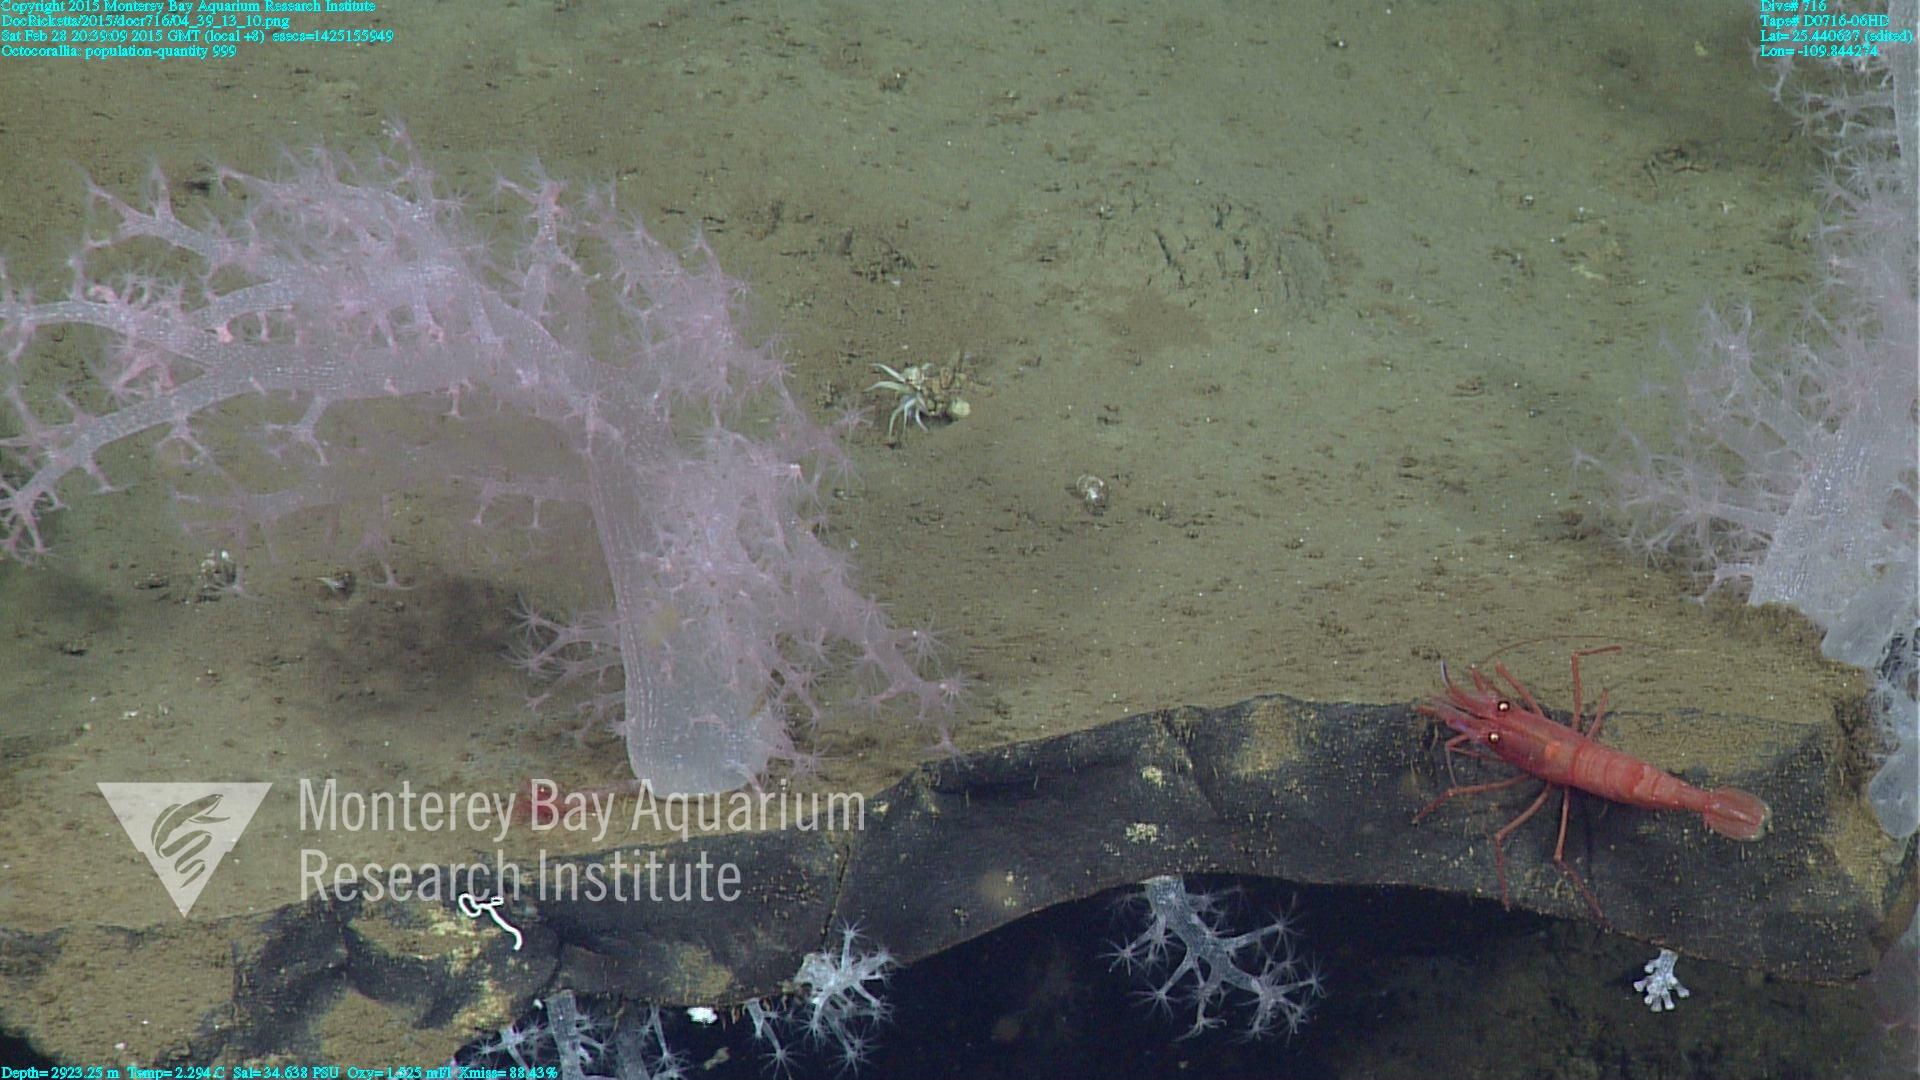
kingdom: Animalia
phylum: Cnidaria
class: Anthozoa
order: Malacalcyonacea
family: Alcyoniidae
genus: Gersemia
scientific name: Gersemia juliepackardae
